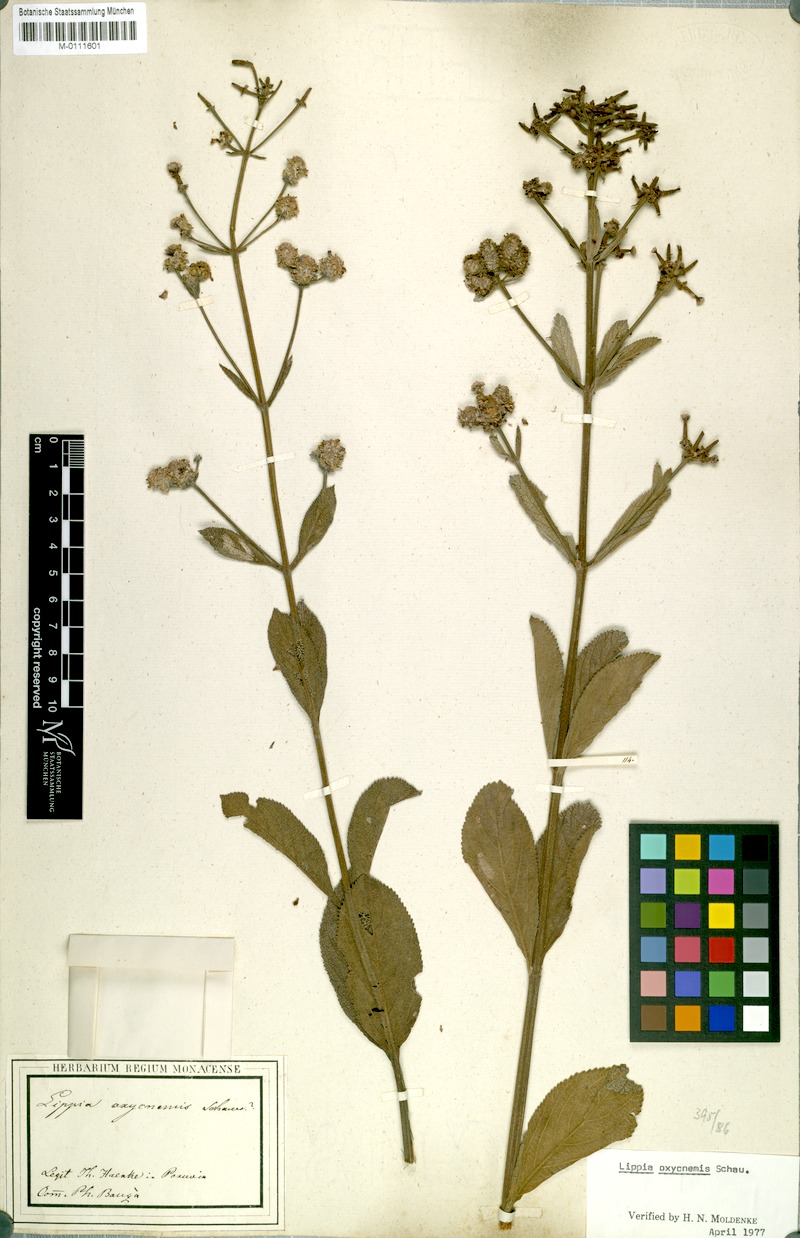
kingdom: Plantae
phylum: Tracheophyta
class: Magnoliopsida
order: Lamiales
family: Verbenaceae
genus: Lippia
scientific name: Lippia oxycnemis
